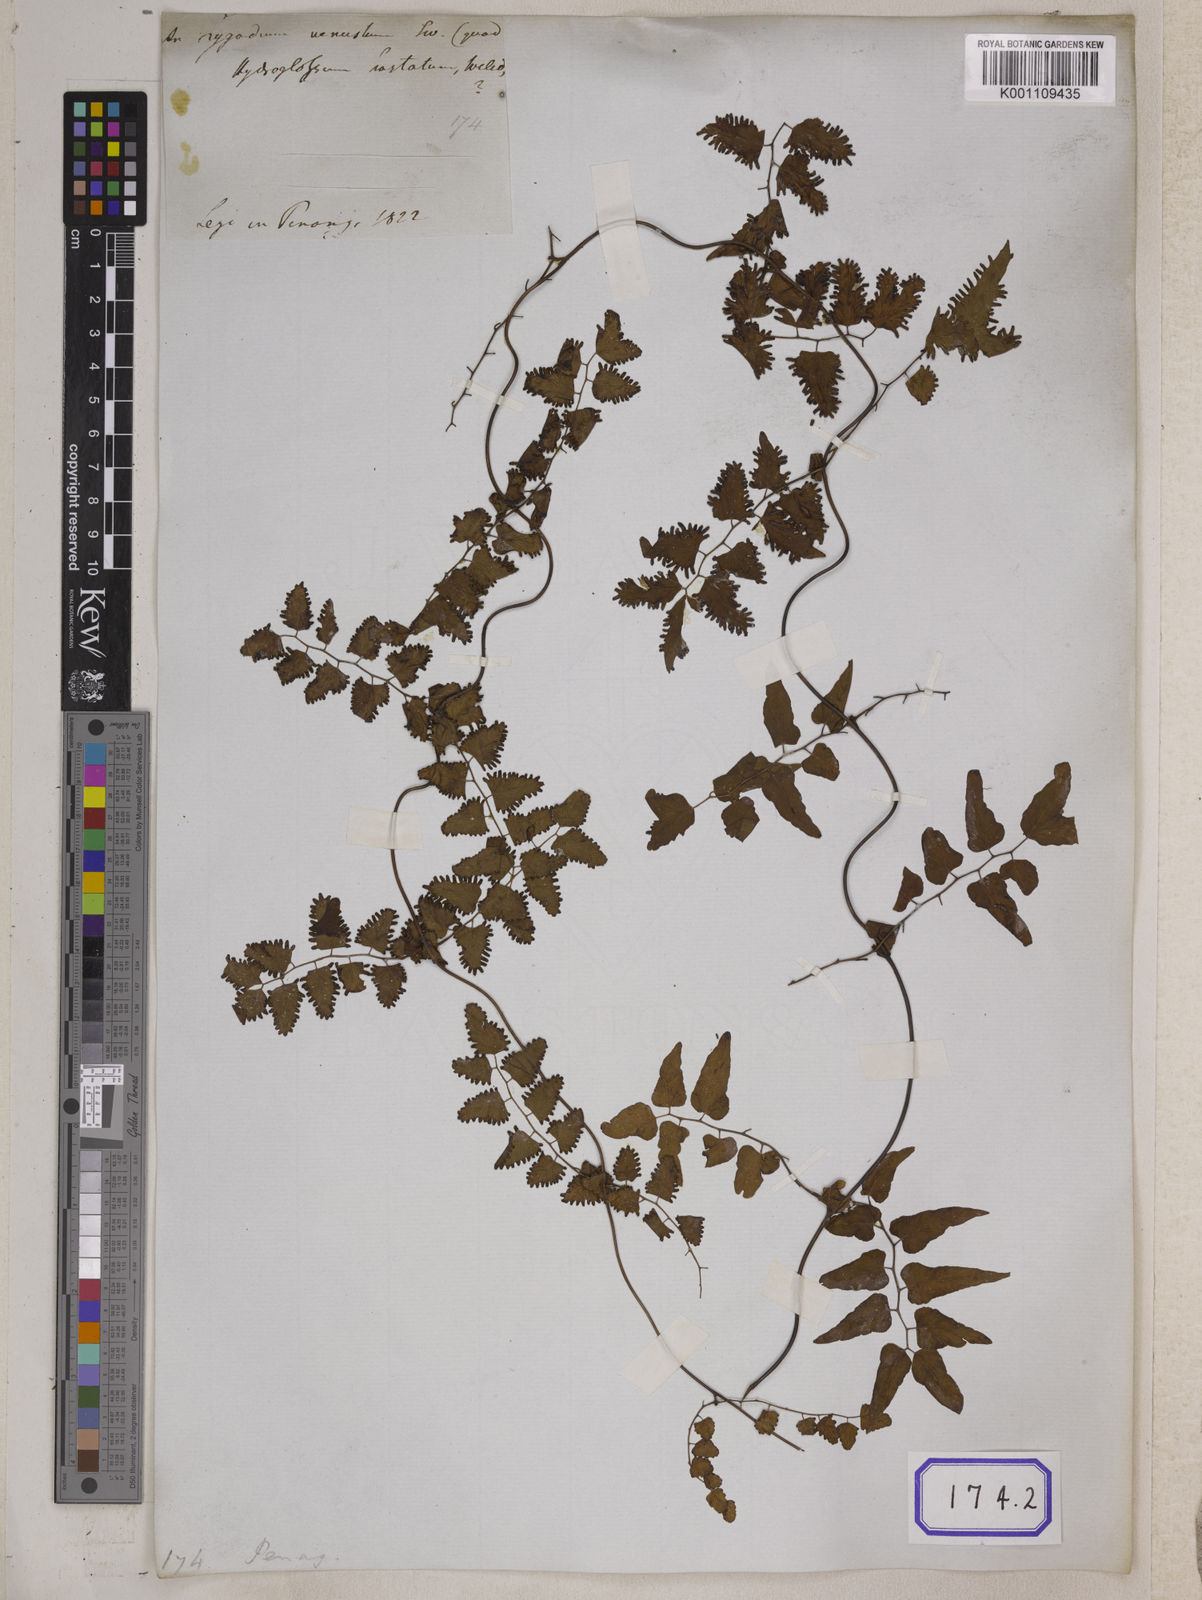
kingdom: Plantae
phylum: Tracheophyta
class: Polypodiopsida
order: Schizaeales
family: Lygodiaceae
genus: Lygodium
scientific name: Lygodium
